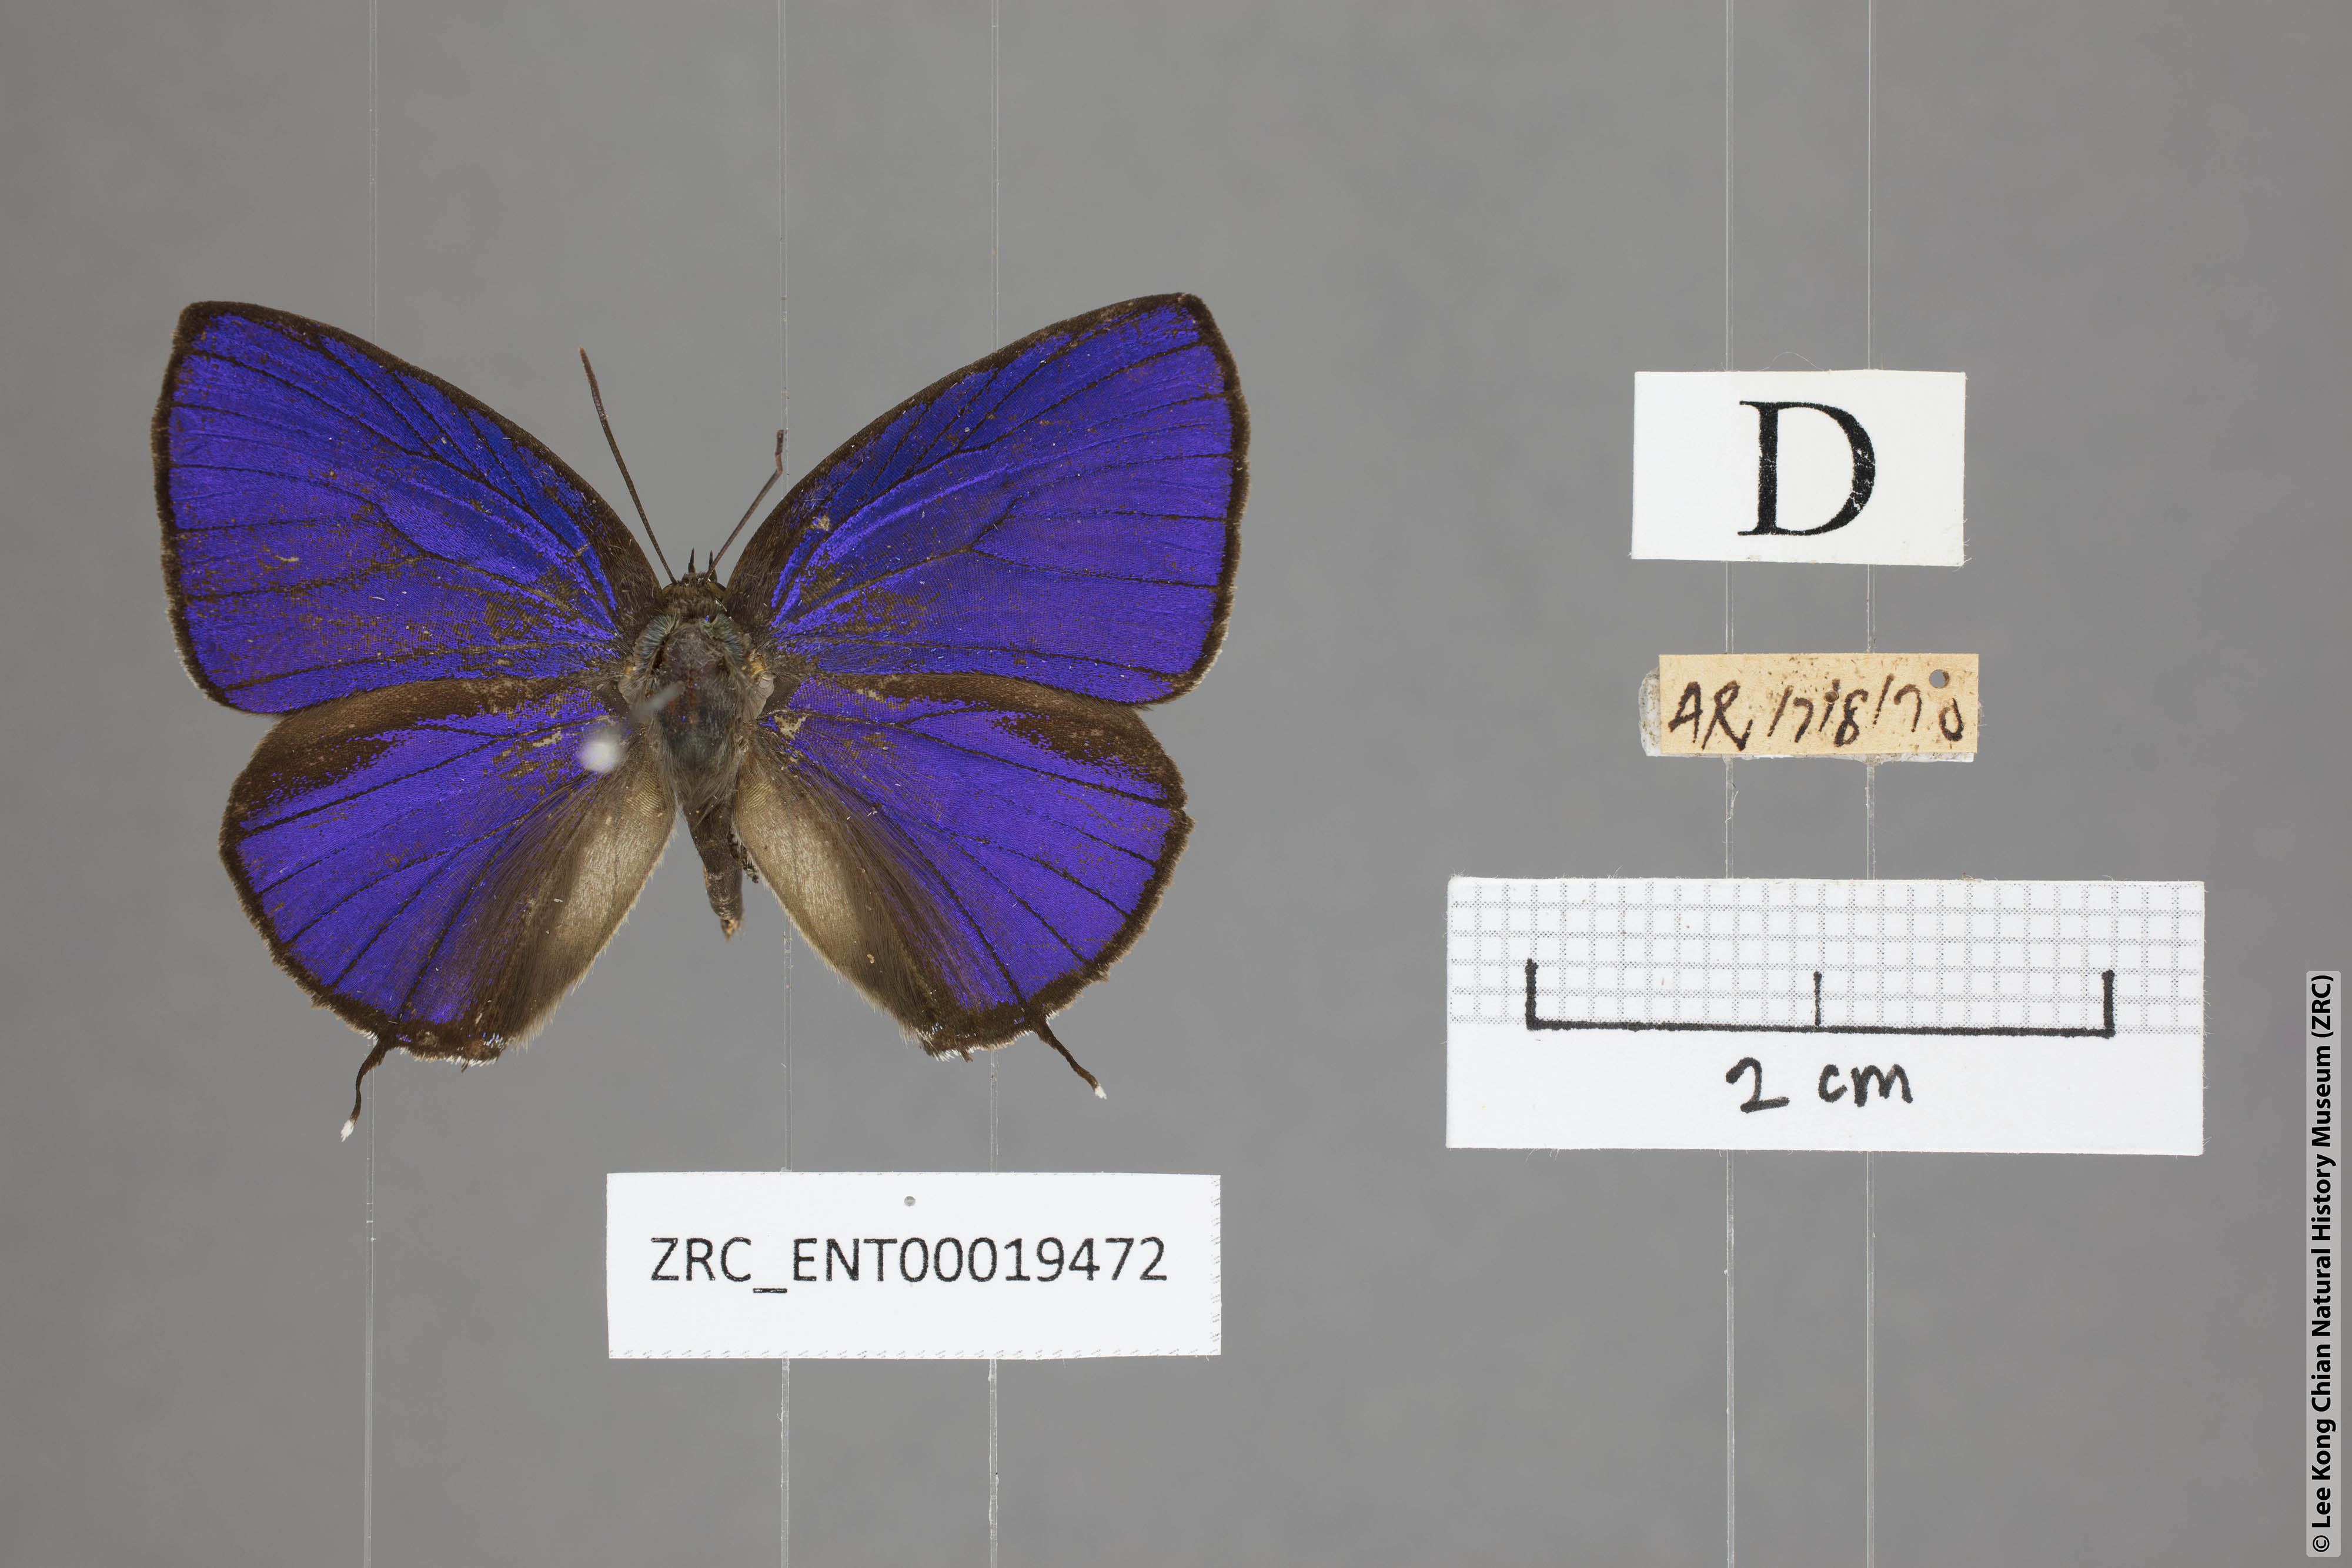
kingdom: Animalia
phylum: Arthropoda
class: Insecta
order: Lepidoptera
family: Lycaenidae
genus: Arhopala
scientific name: Arhopala azinis
